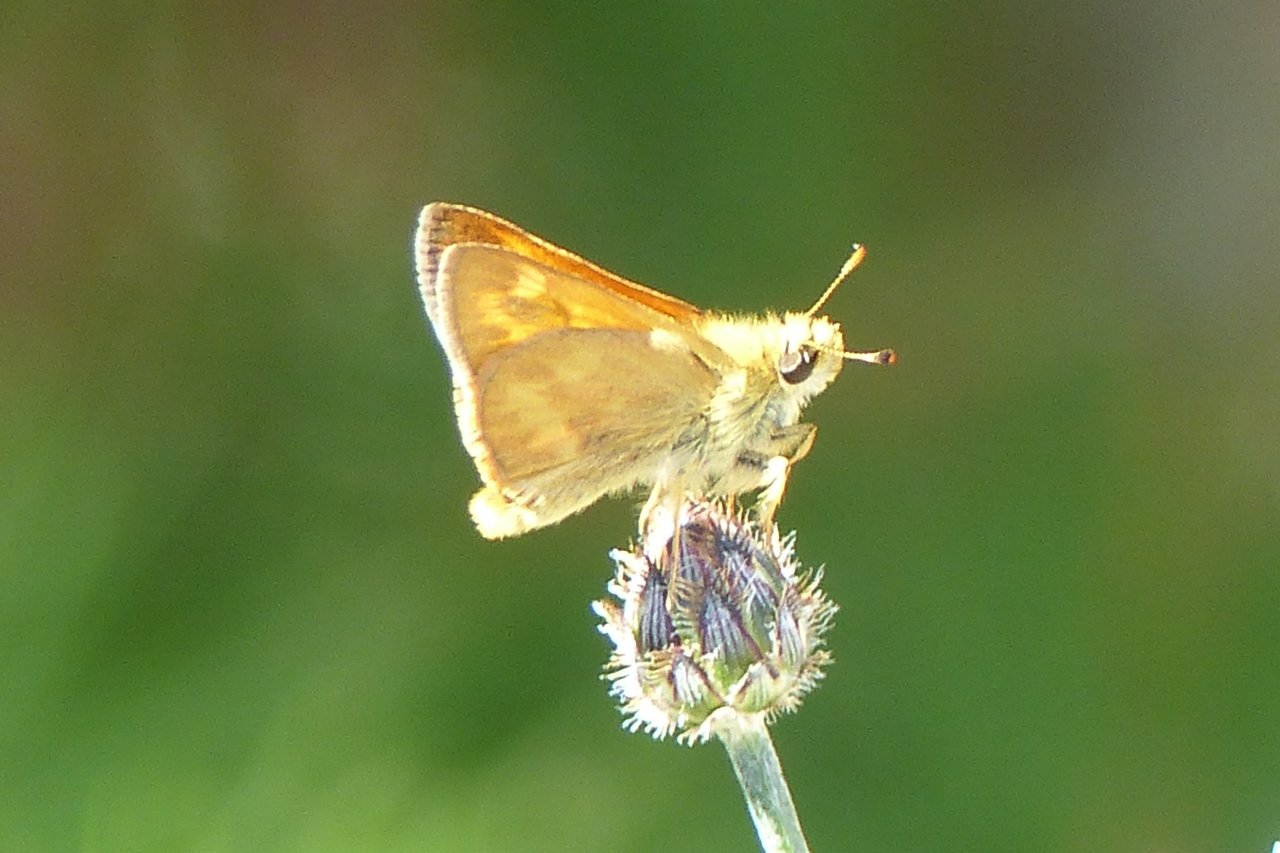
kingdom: Animalia
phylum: Arthropoda
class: Insecta
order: Lepidoptera
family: Hesperiidae
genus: Ochlodes
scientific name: Ochlodes sylvanoides
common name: Woodland Skipper
